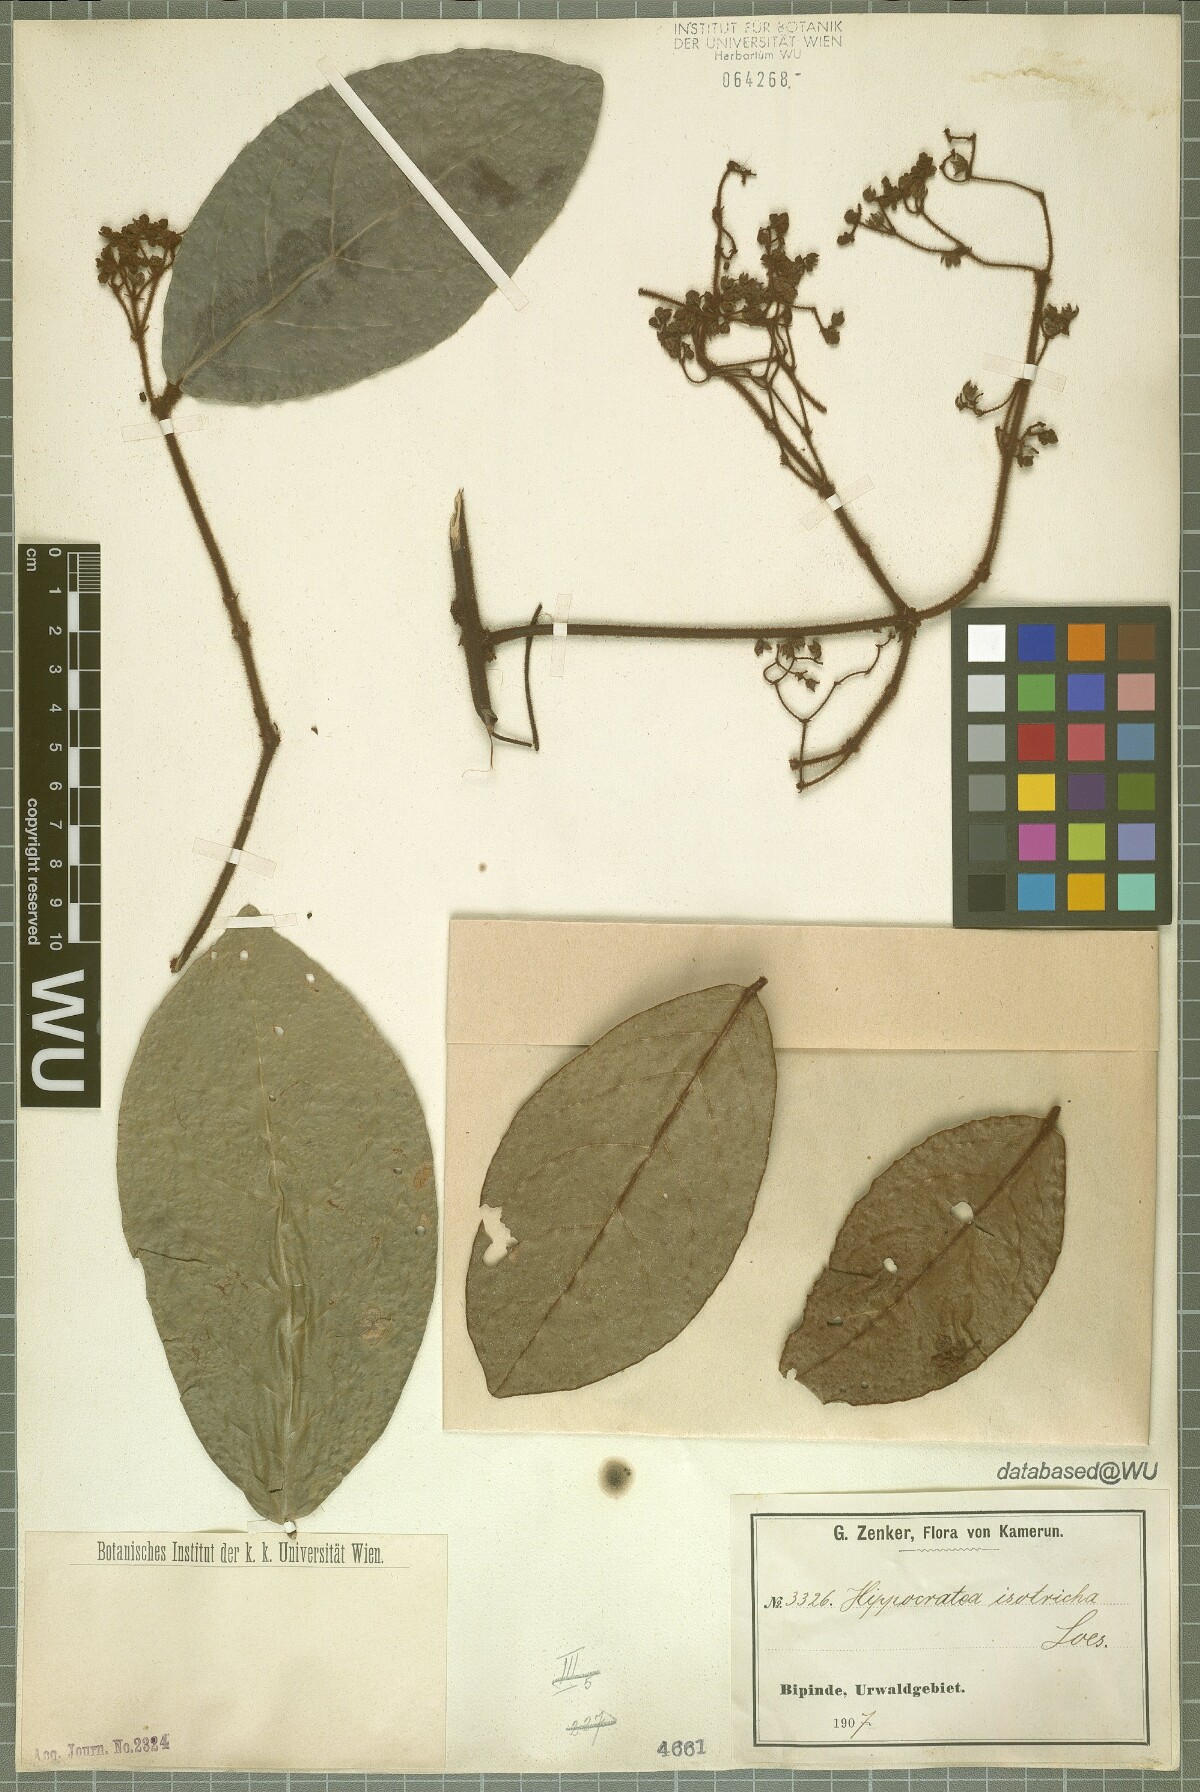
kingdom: Plantae
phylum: Tracheophyta
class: Magnoliopsida
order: Celastrales
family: Celastraceae
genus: Loeseneriella
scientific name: Loeseneriella iotricha
